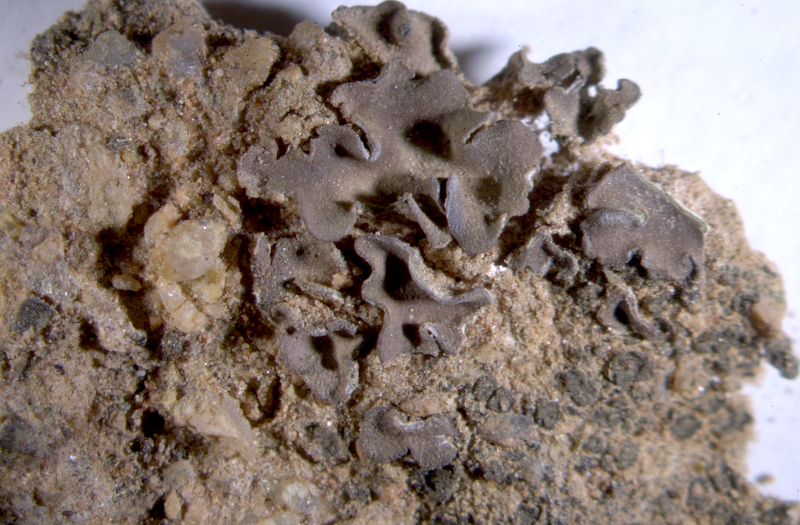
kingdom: Fungi
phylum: Ascomycota
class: Eurotiomycetes
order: Verrucariales
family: Verrucariaceae
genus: Clavascidium
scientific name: Clavascidium semaforonense
